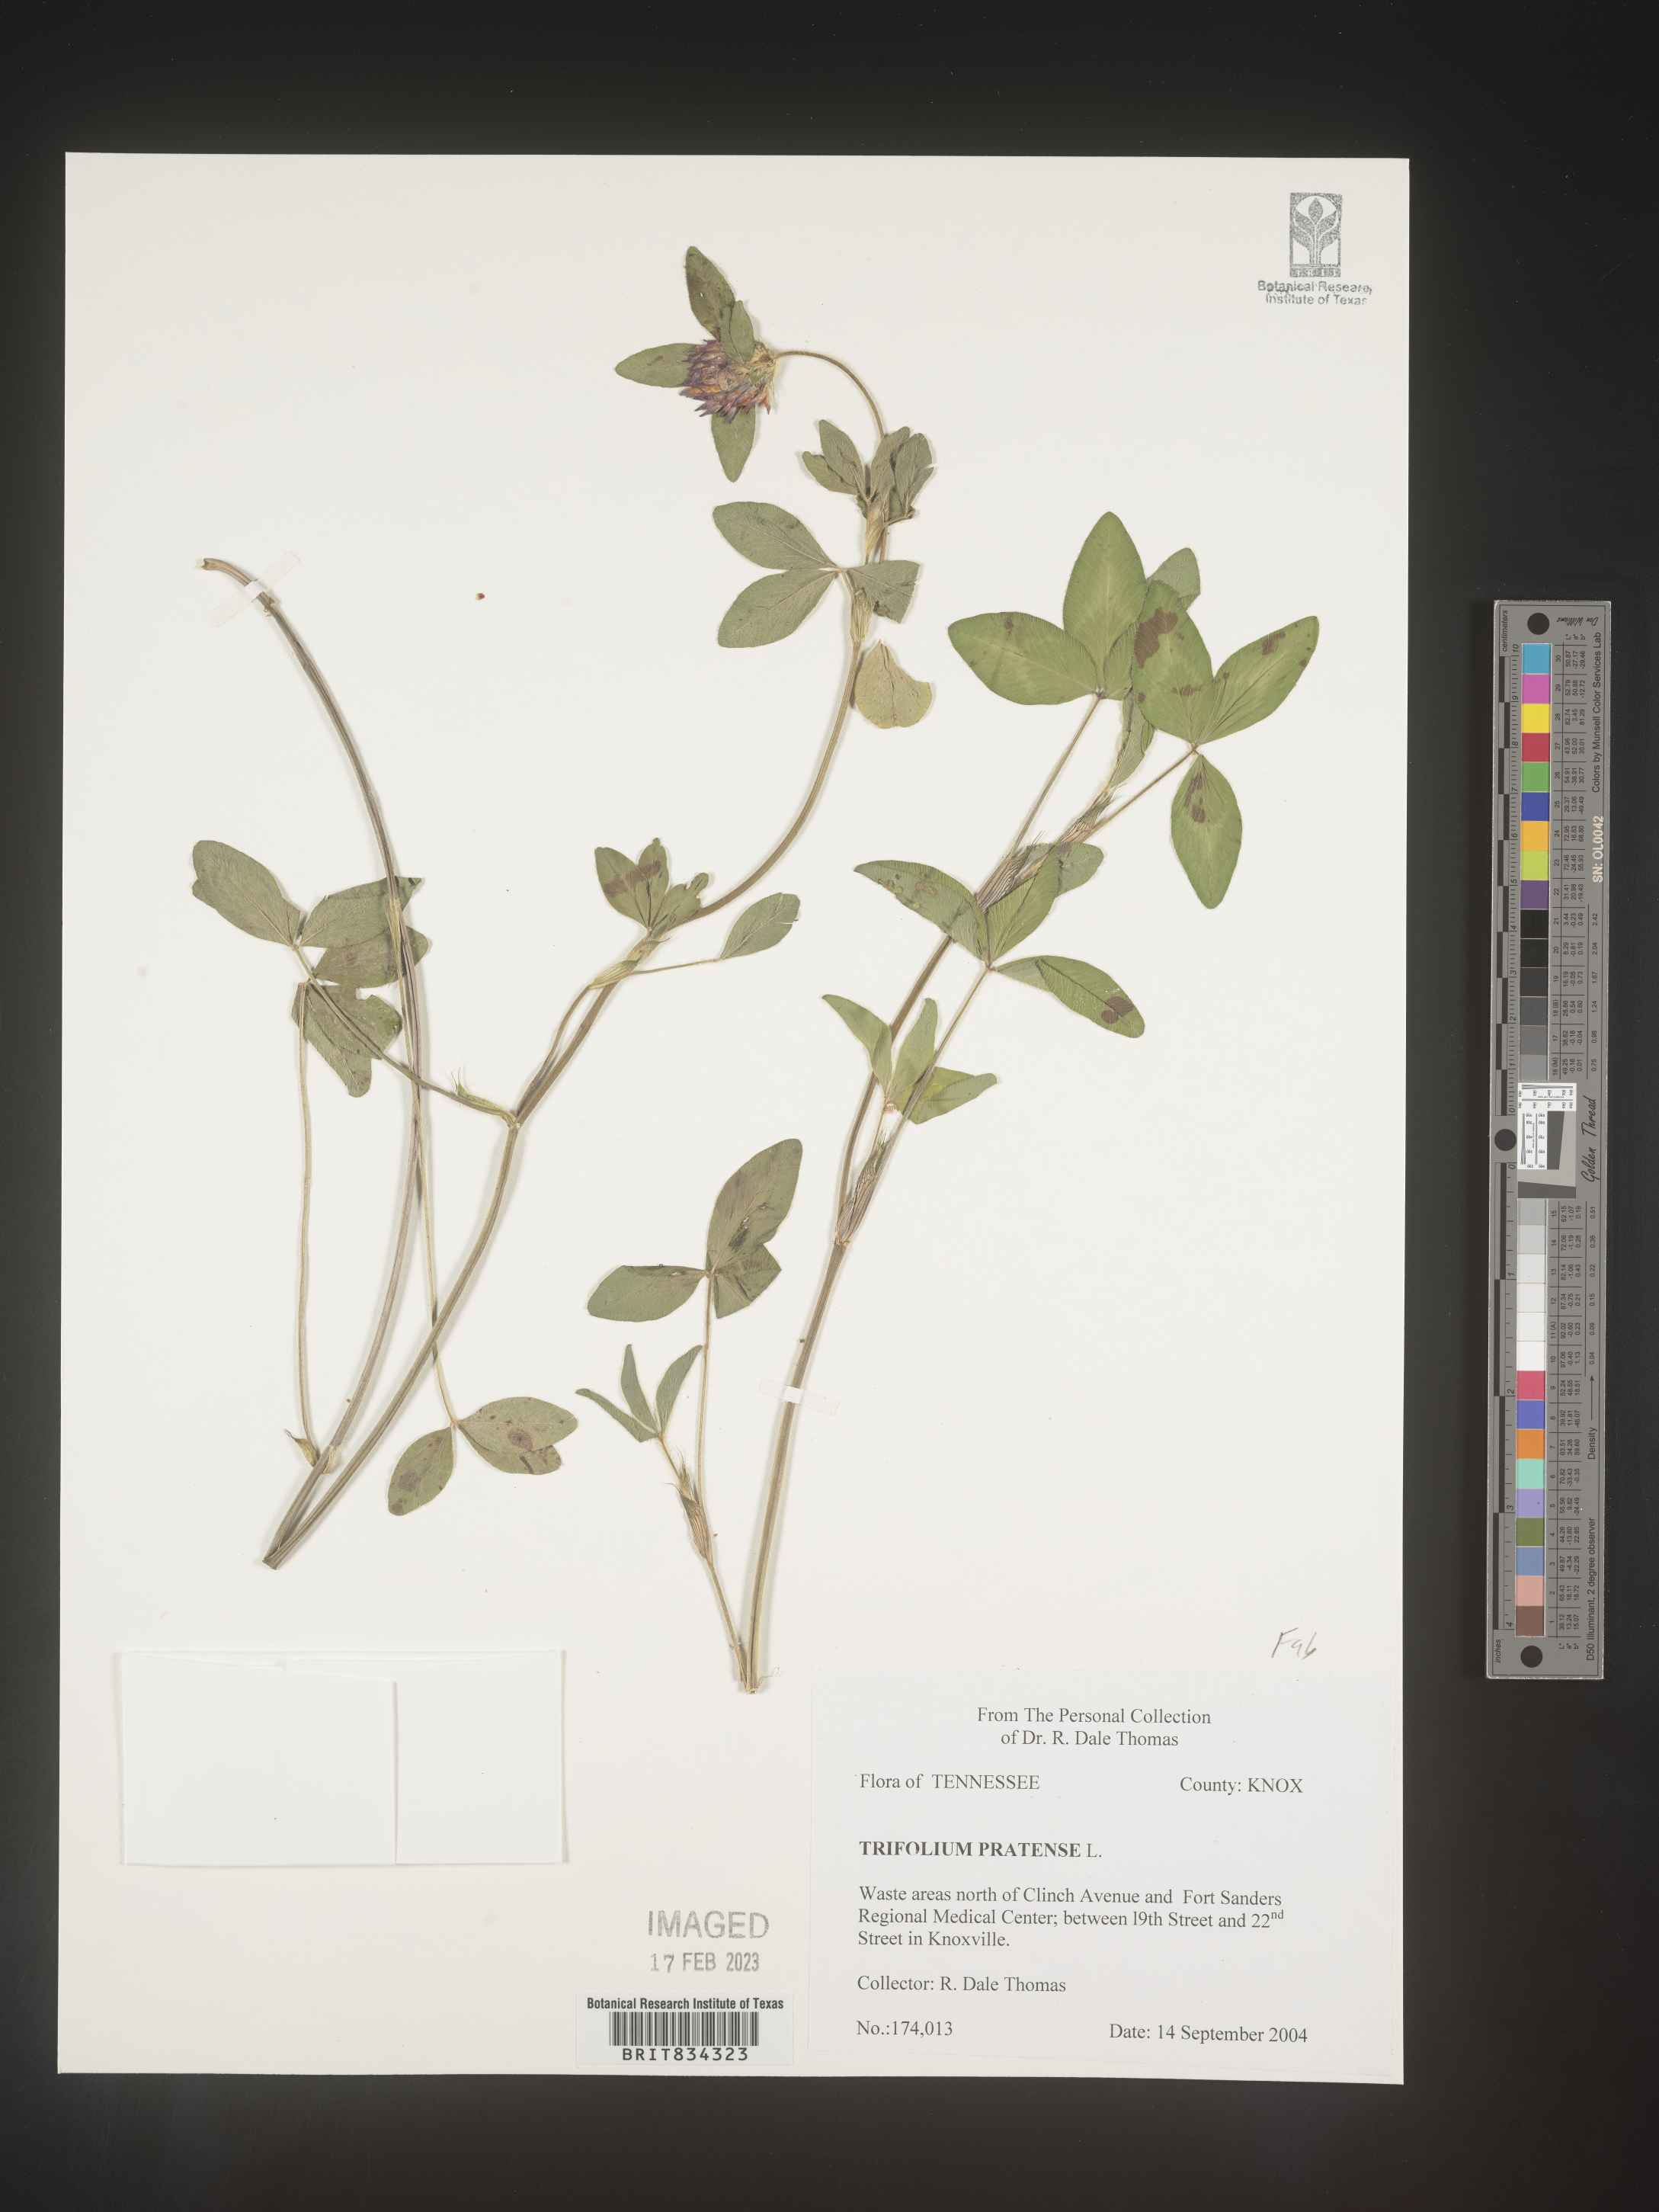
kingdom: Plantae
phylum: Tracheophyta
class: Magnoliopsida
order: Fabales
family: Fabaceae
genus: Trifolium
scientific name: Trifolium pratense
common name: Red clover
